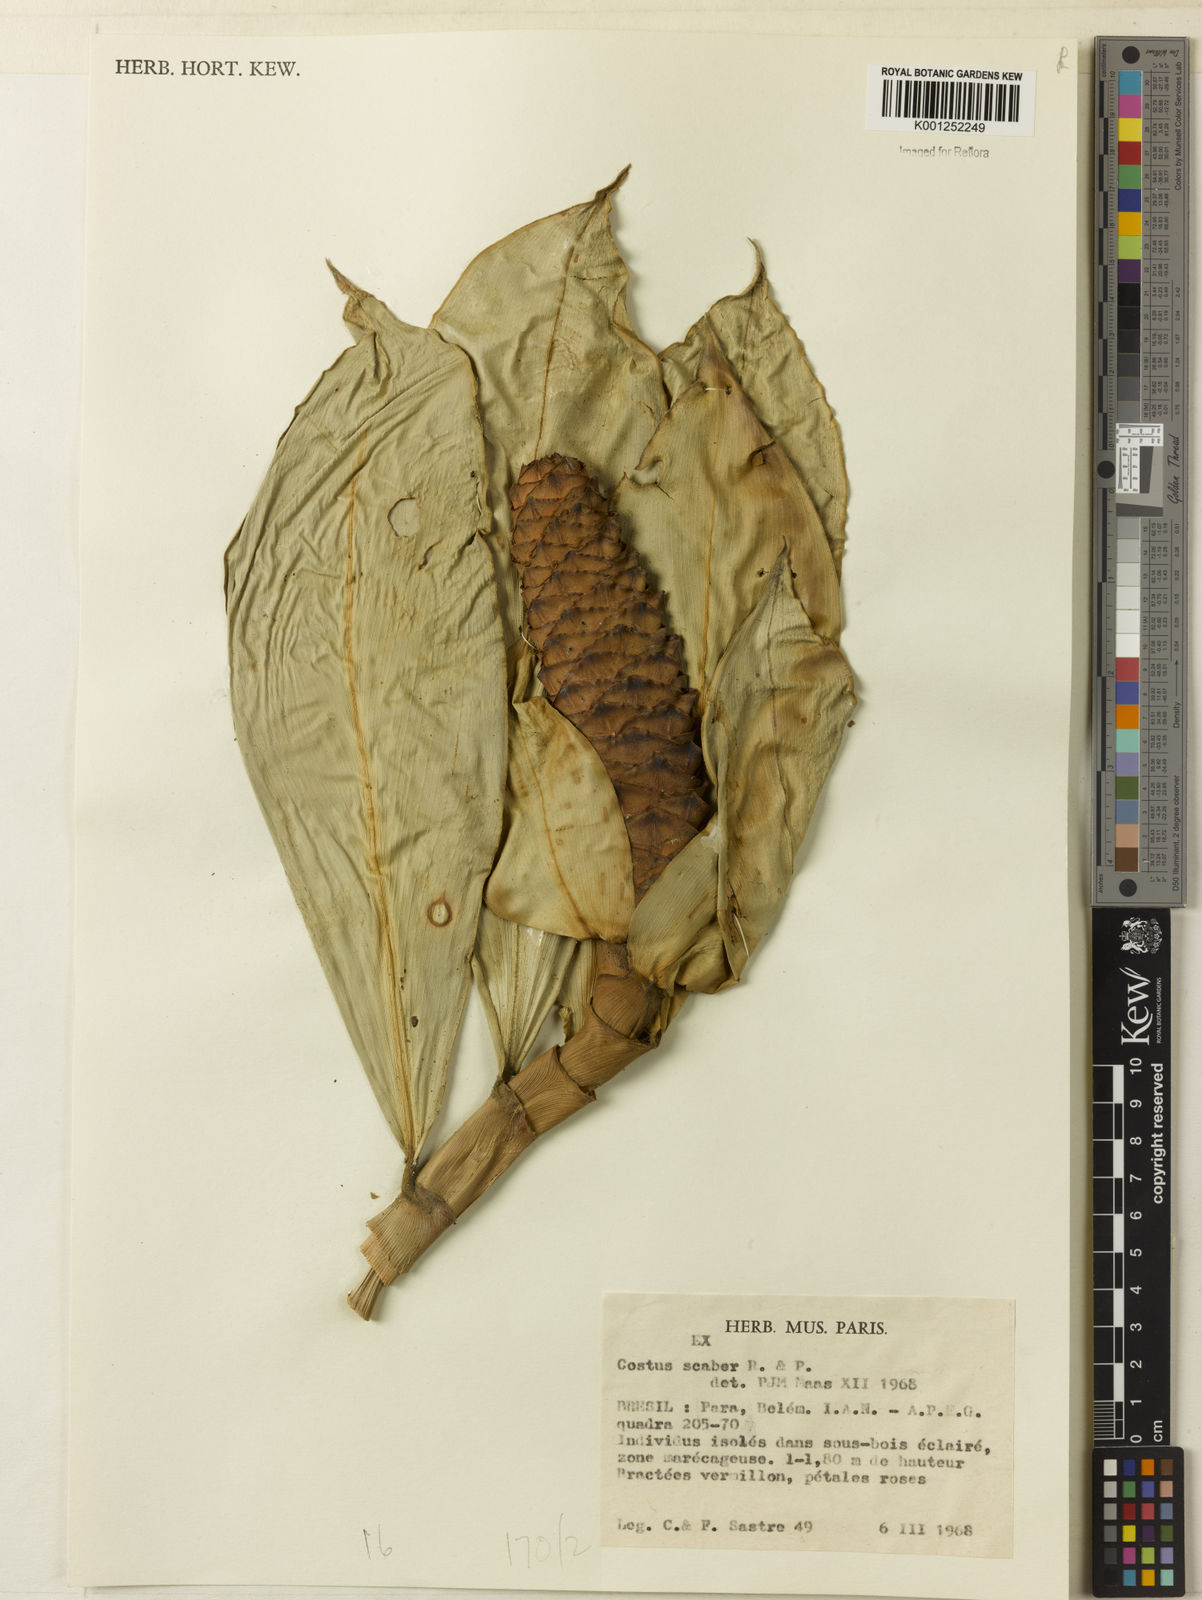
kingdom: Plantae
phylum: Tracheophyta
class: Liliopsida
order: Zingiberales
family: Costaceae
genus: Costus
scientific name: Costus scaber
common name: Spiral head ginger
